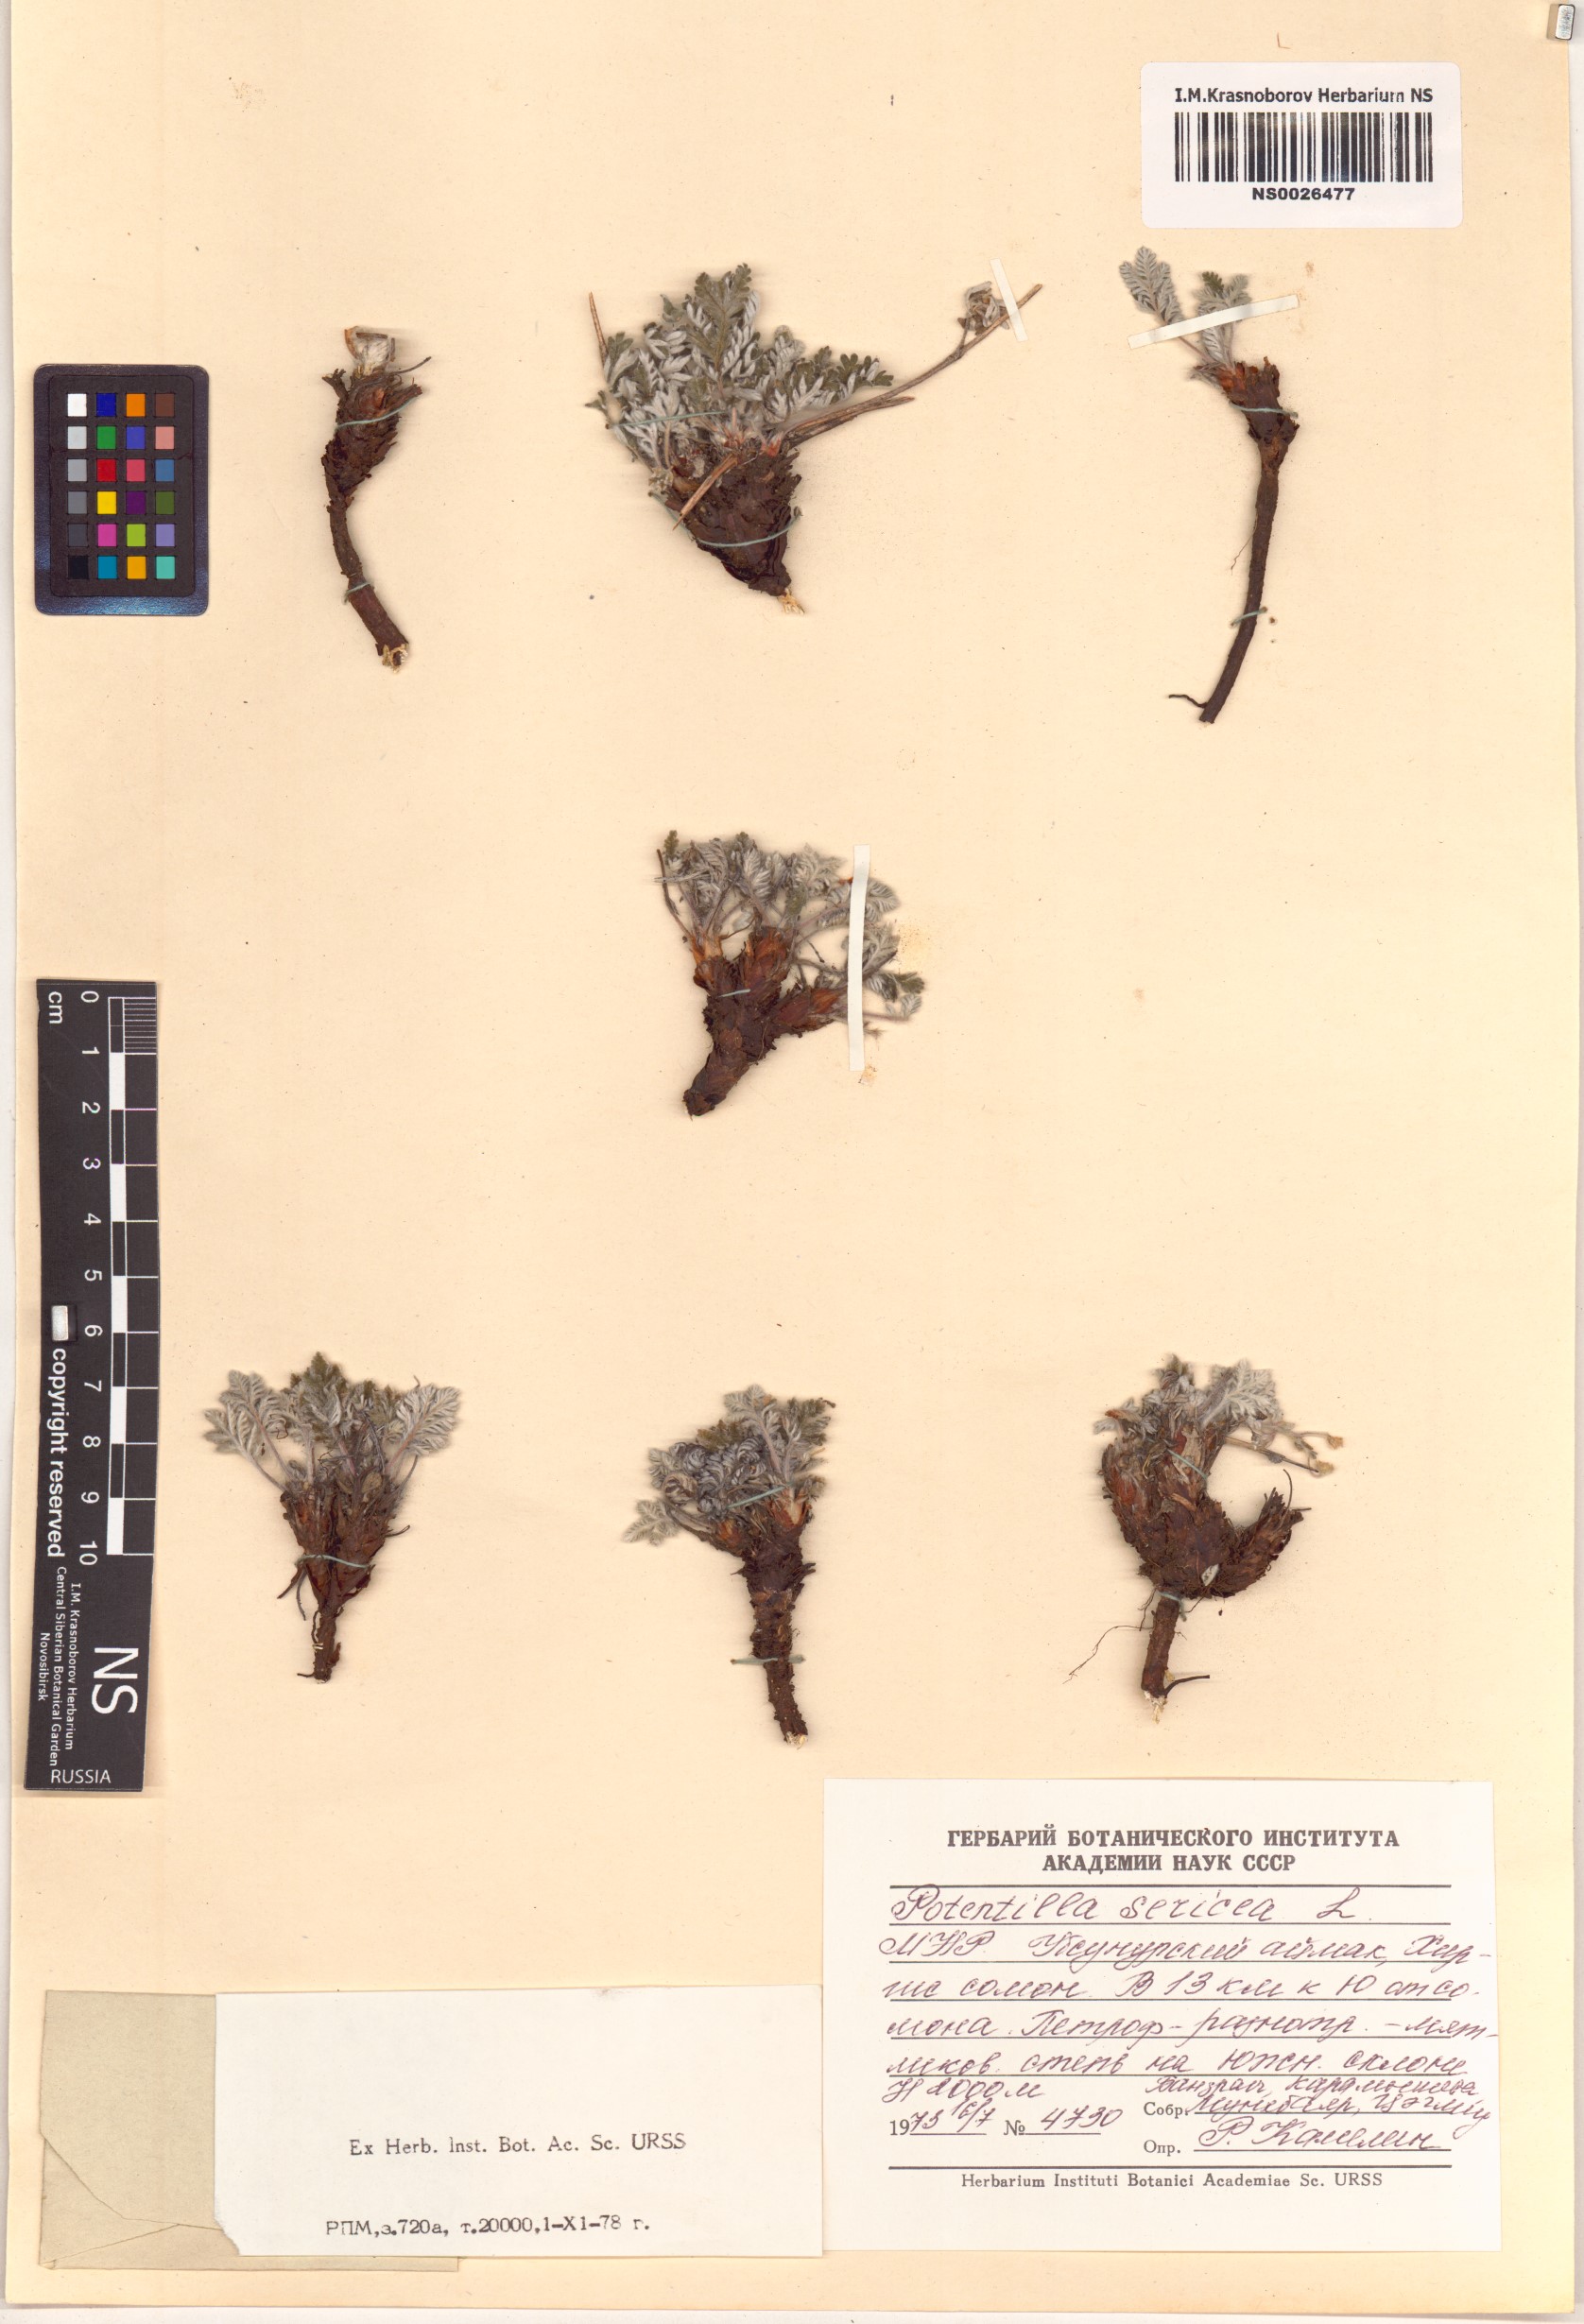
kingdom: Plantae
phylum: Tracheophyta
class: Magnoliopsida
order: Rosales
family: Rosaceae
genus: Potentilla
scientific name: Potentilla sericea
